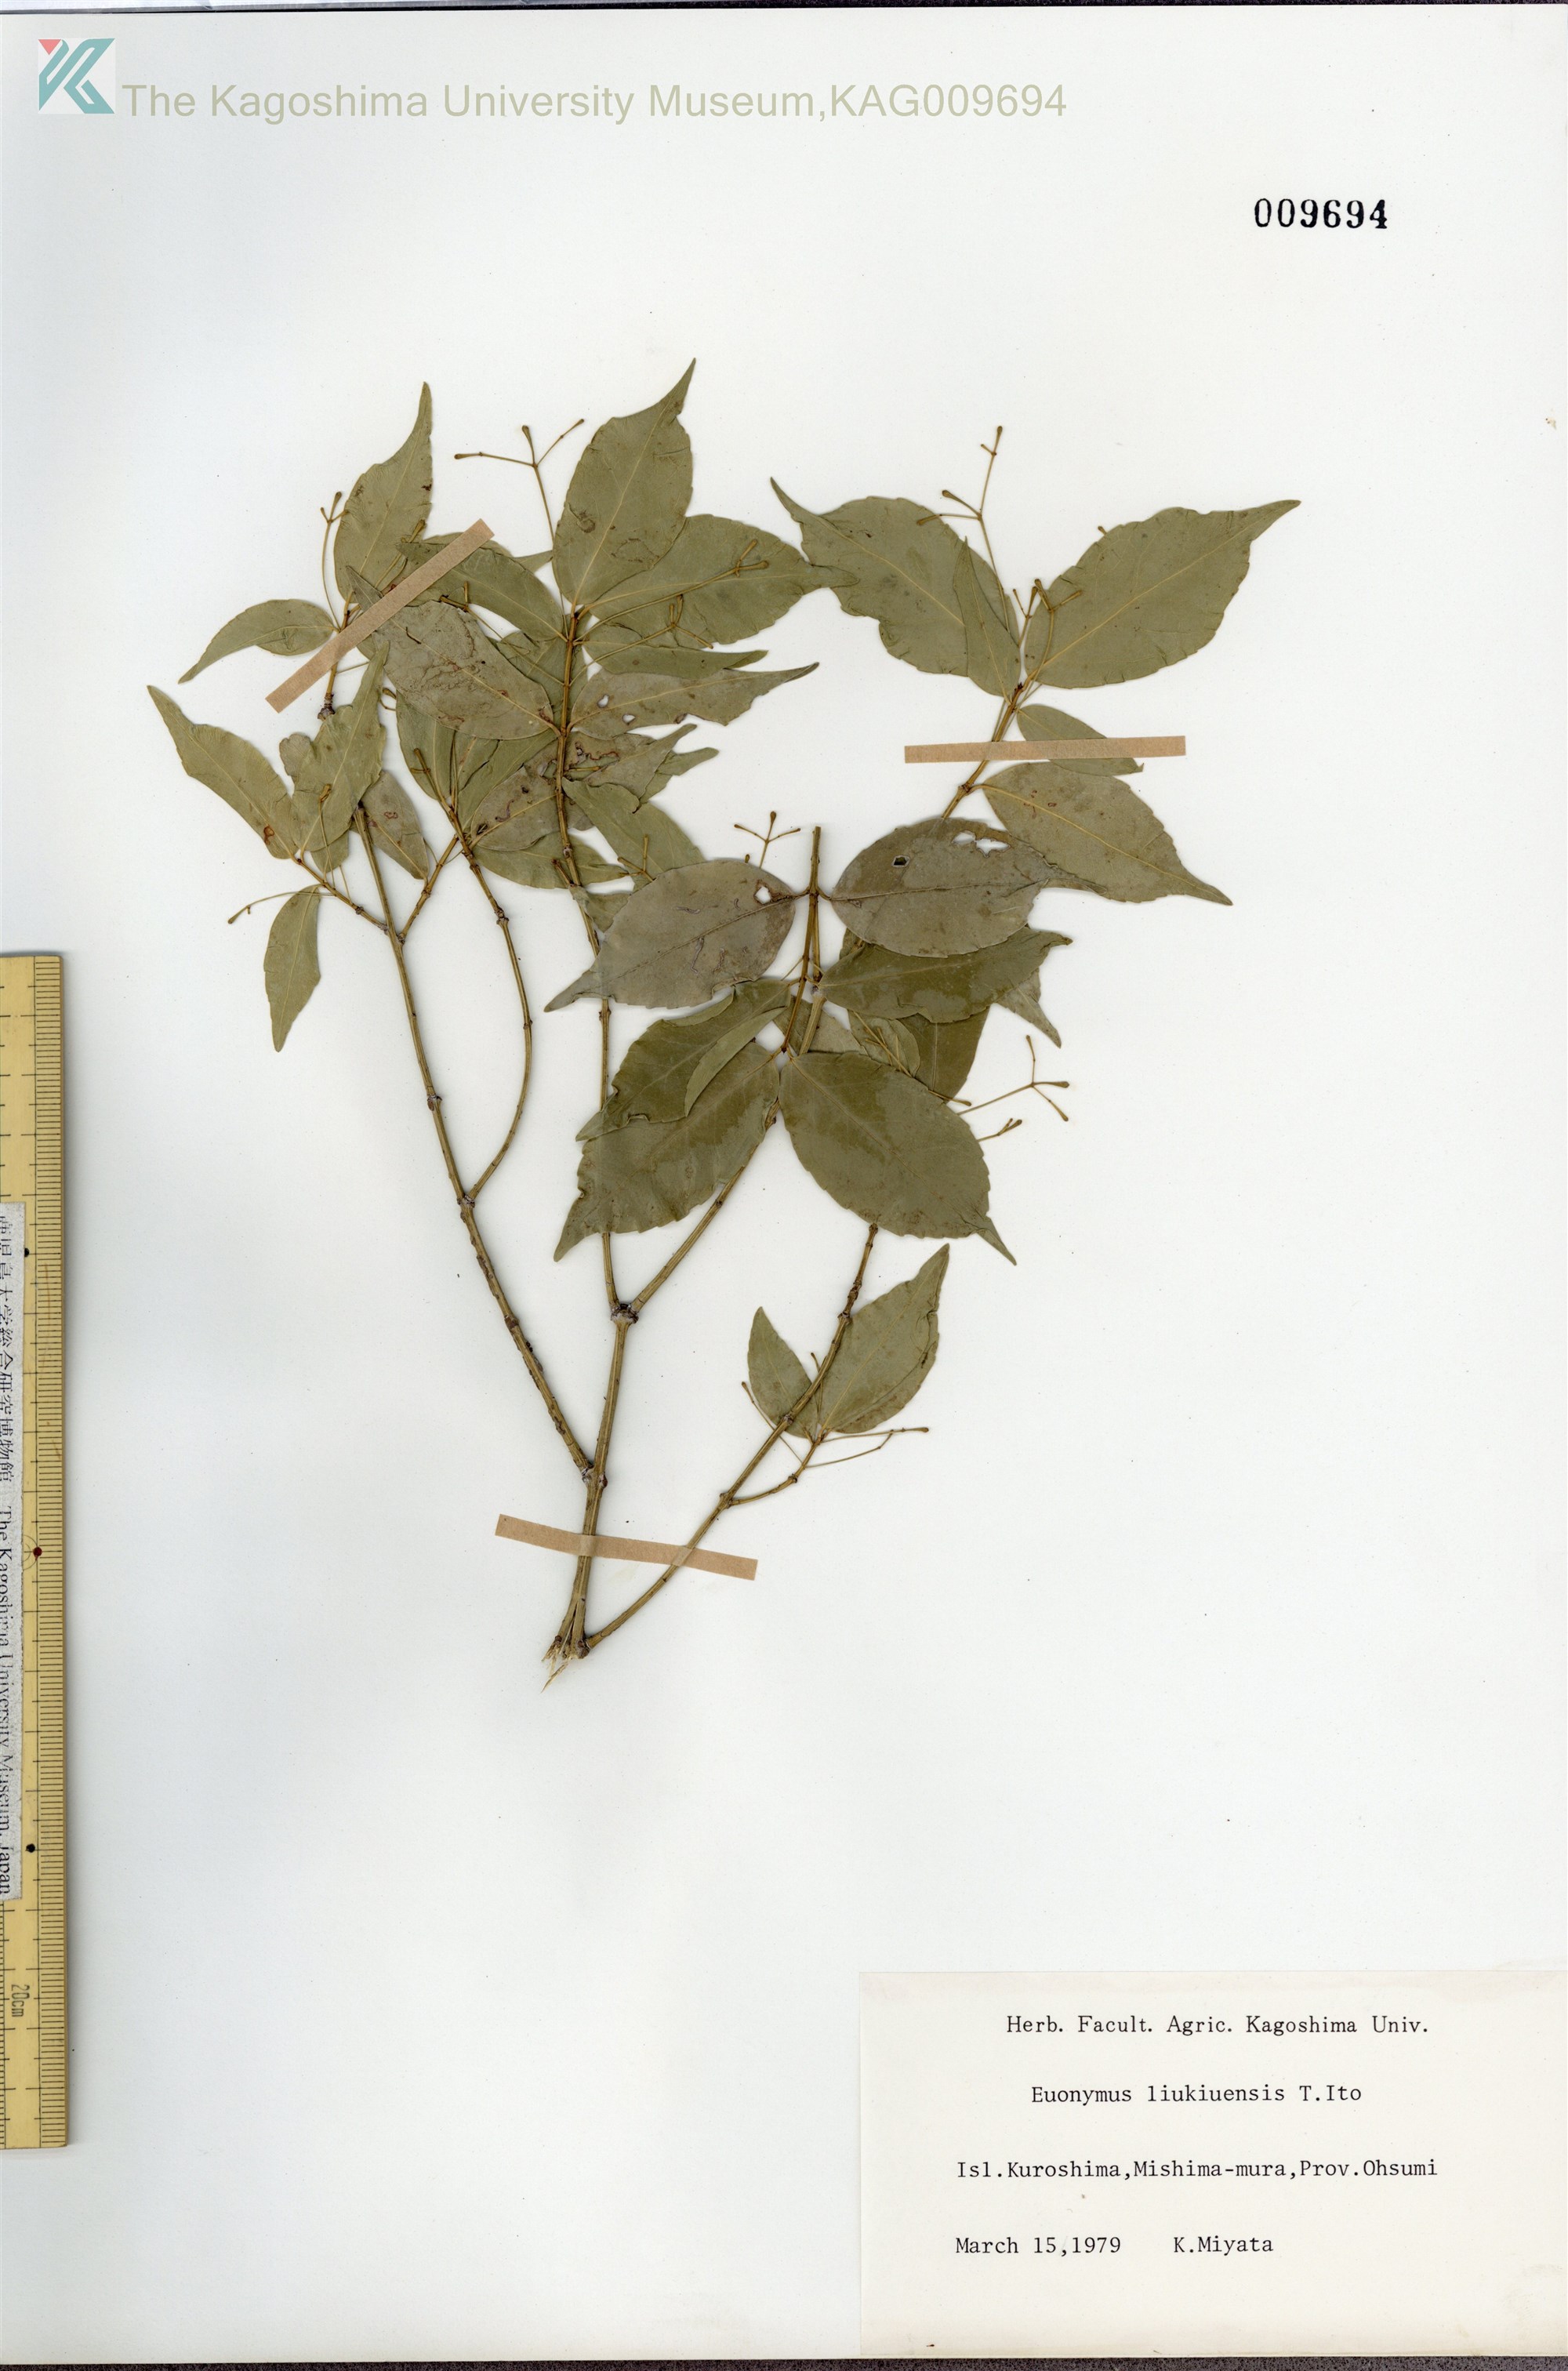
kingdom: Plantae
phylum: Tracheophyta
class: Magnoliopsida
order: Celastrales
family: Celastraceae
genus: Euonymus
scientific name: Euonymus lutchuensis
